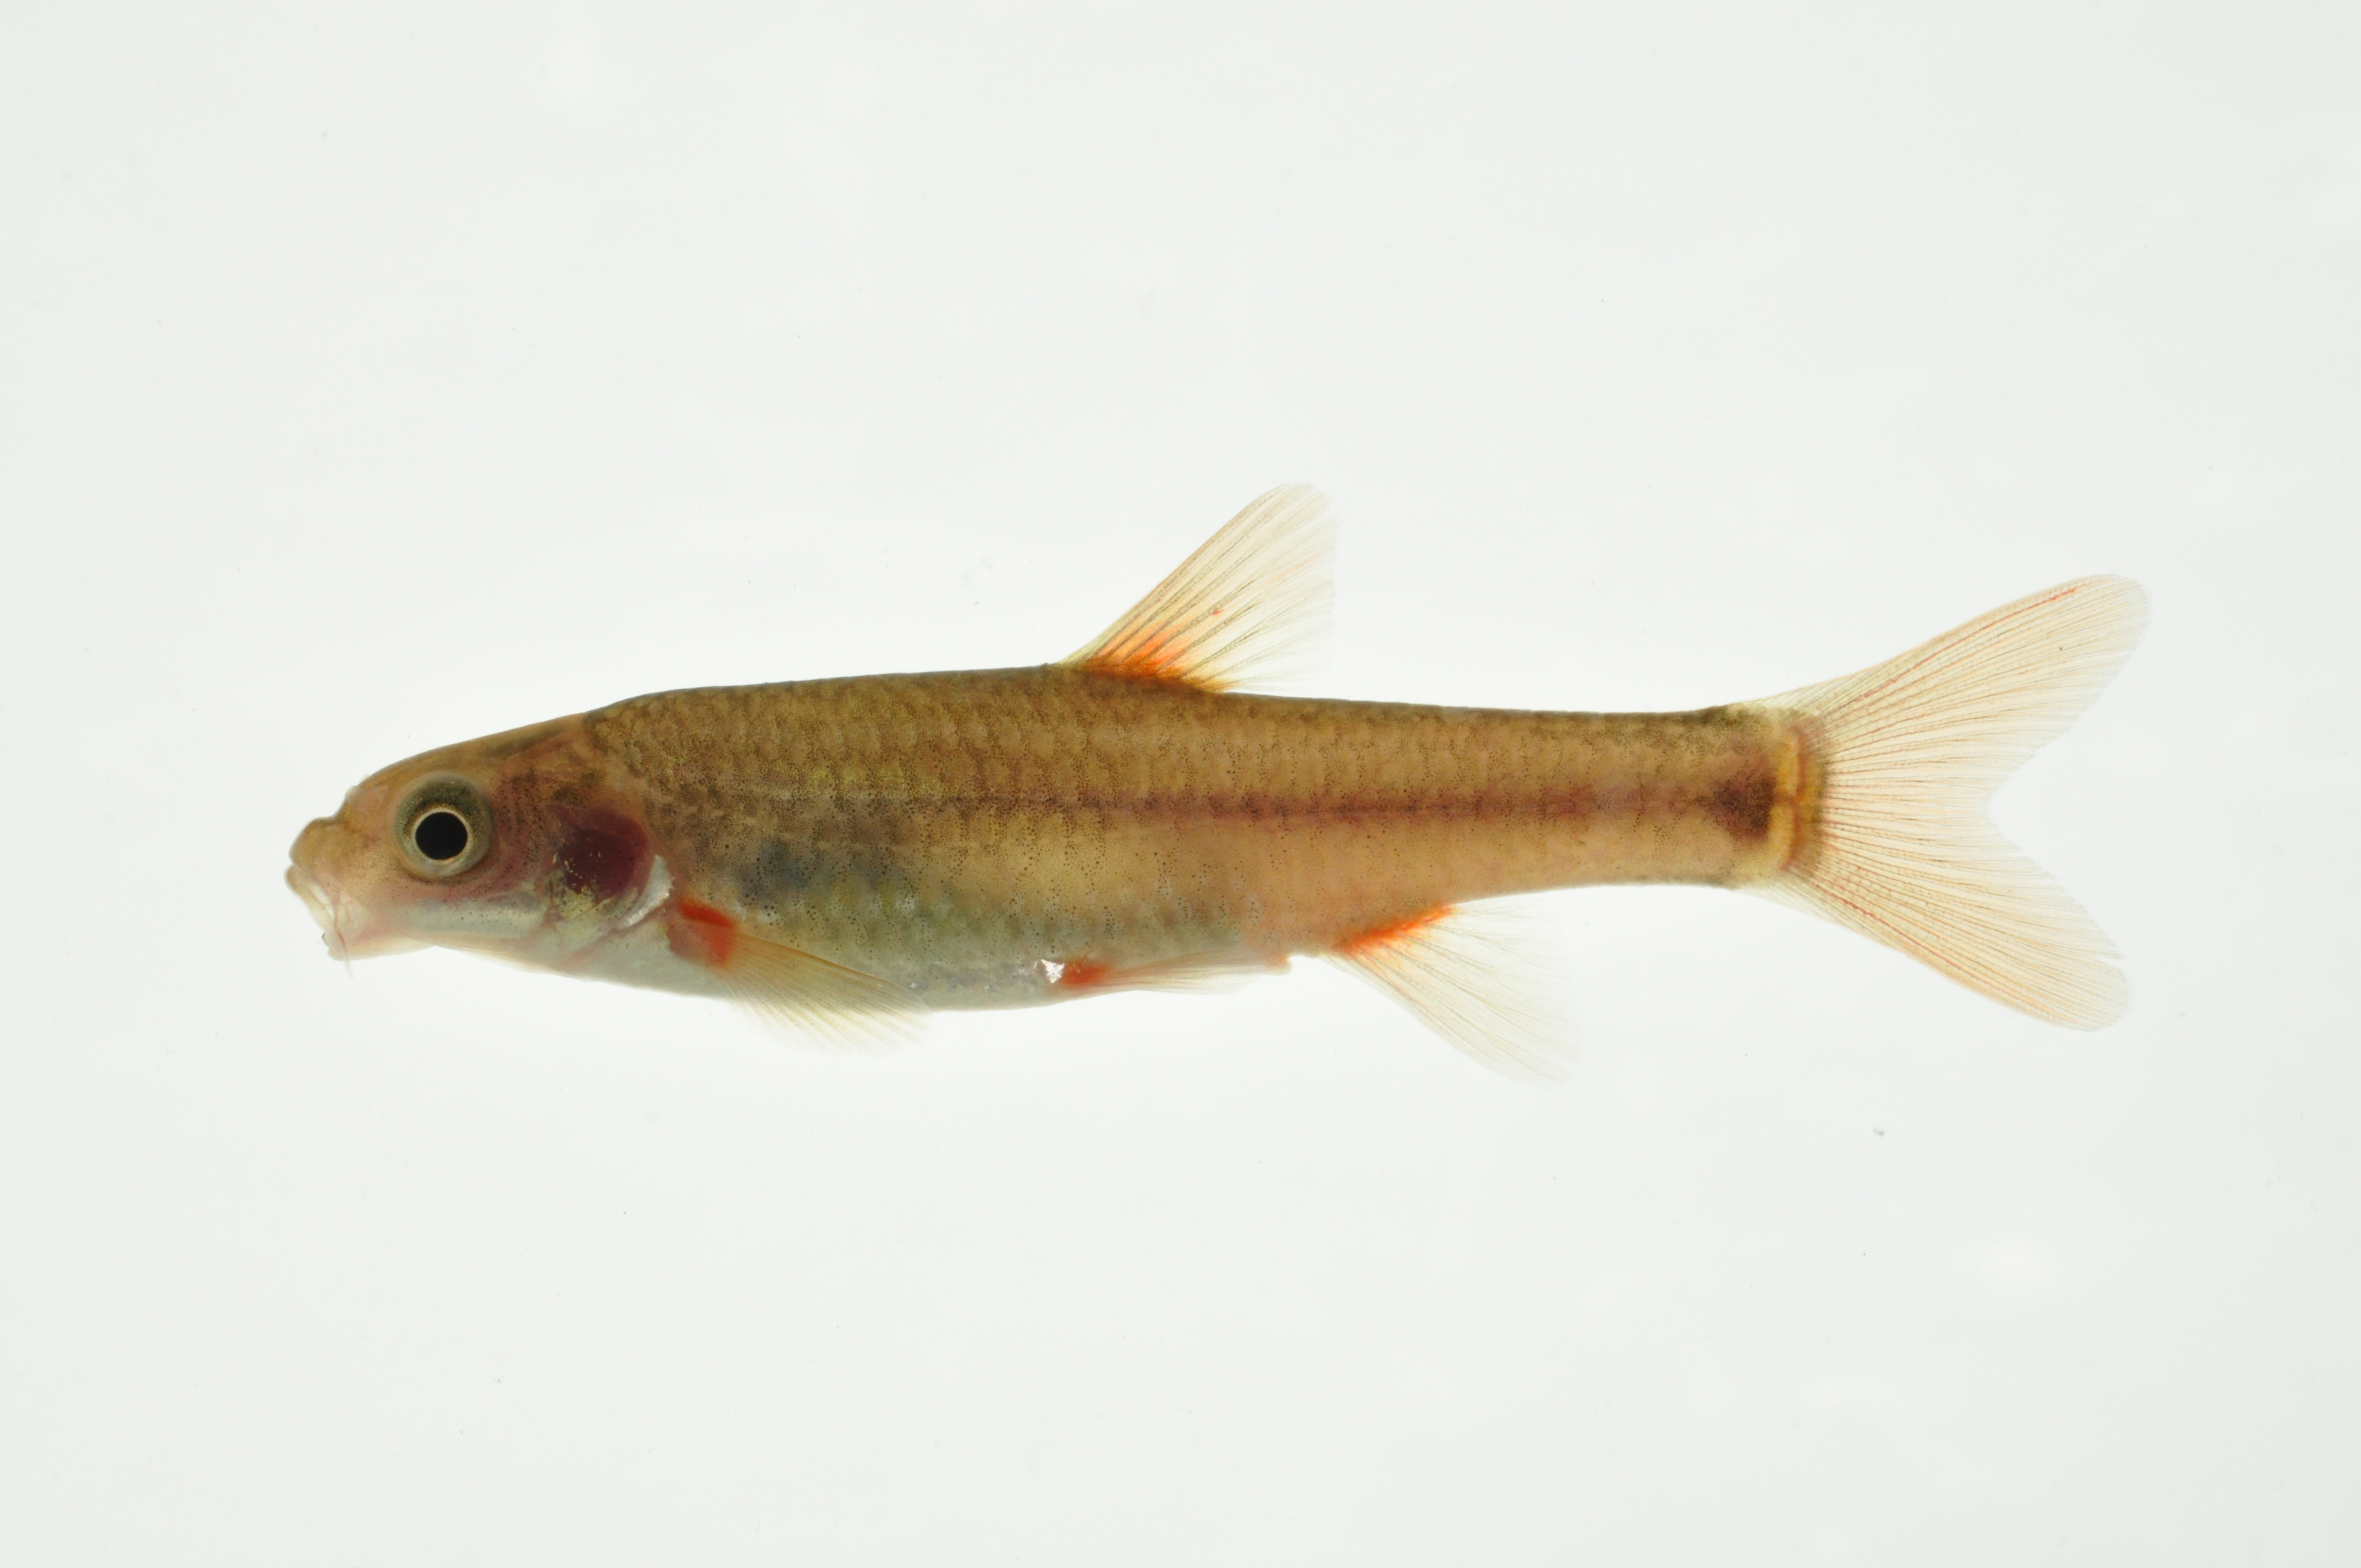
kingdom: Animalia
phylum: Chordata
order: Cypriniformes
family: Cyprinidae
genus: Pseudobarbus
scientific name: Pseudobarbus tenuis
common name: Slender redfin
